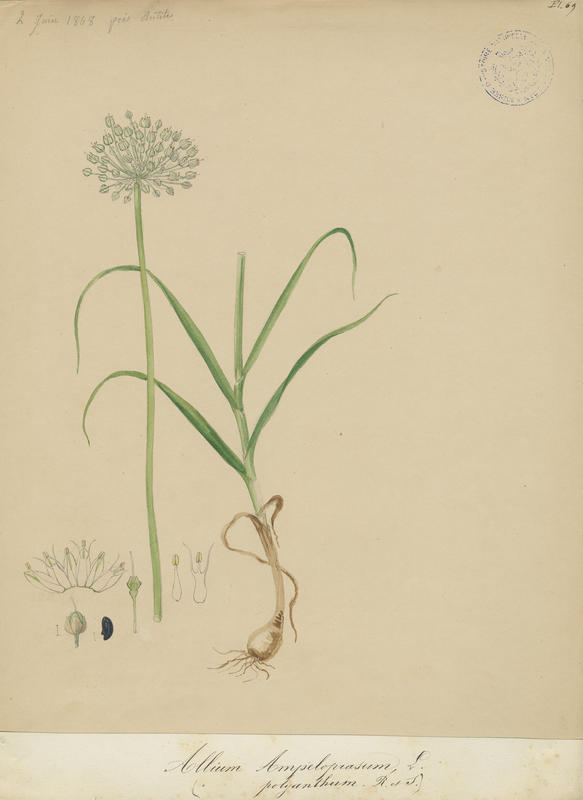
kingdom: Plantae
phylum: Tracheophyta
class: Liliopsida
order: Asparagales
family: Amaryllidaceae
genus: Allium
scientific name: Allium ampeloprasum
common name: Wild leek
